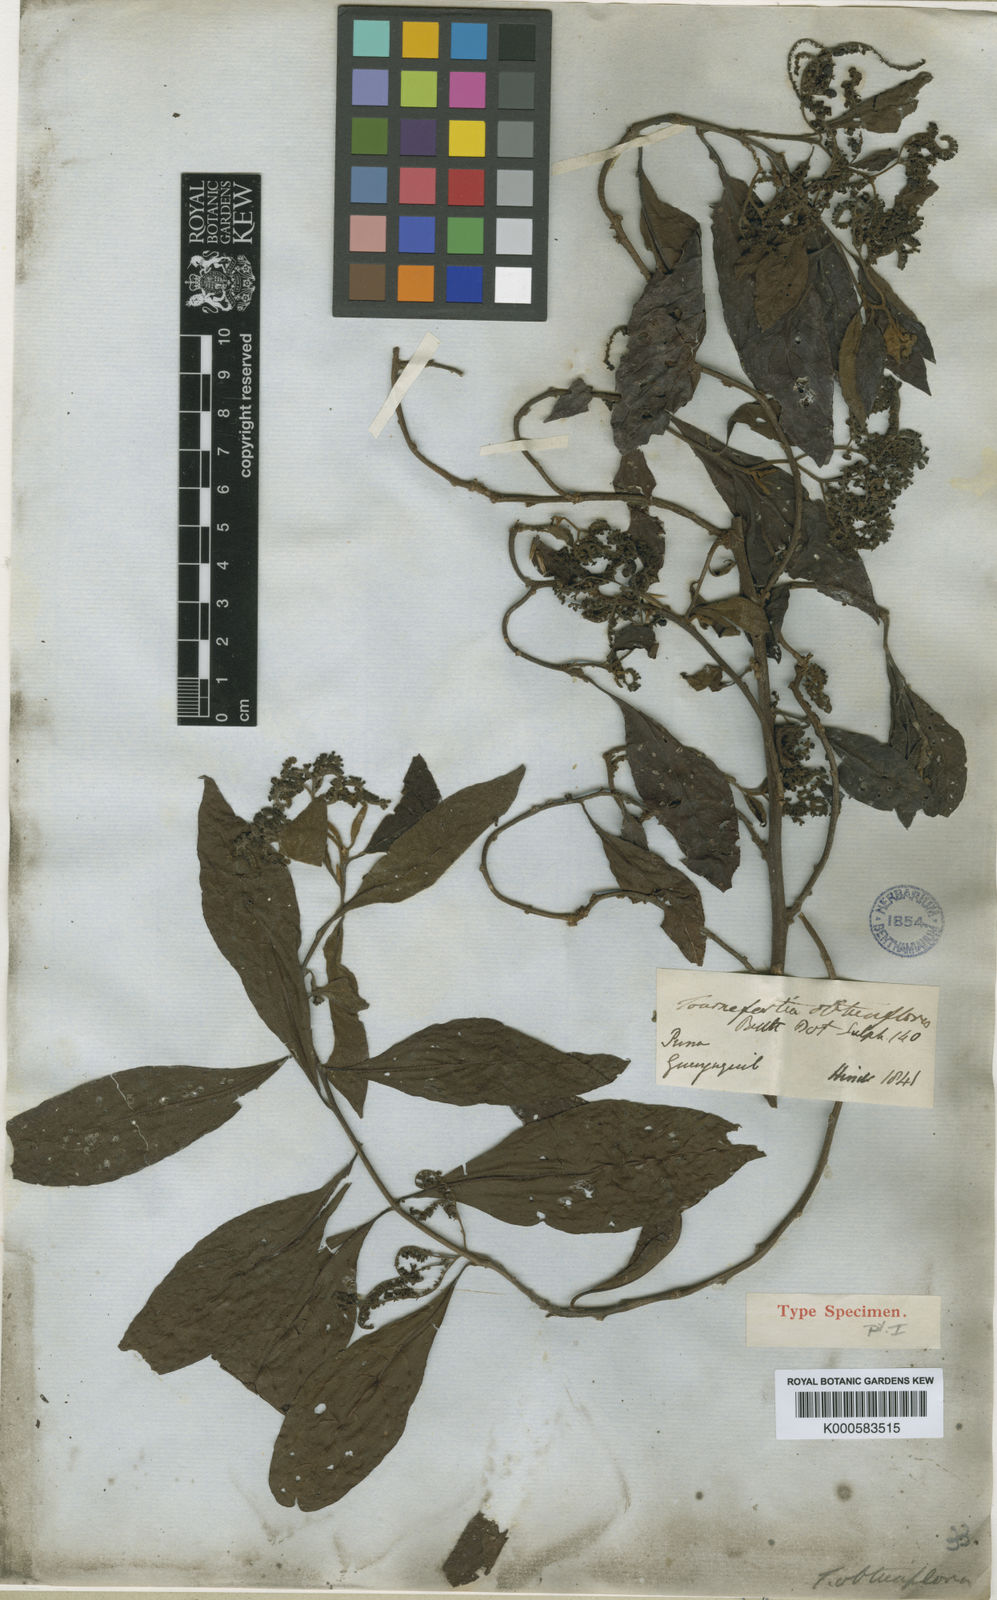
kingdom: Plantae
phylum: Tracheophyta
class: Magnoliopsida
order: Boraginales
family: Heliotropiaceae
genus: Tournefortia
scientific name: Tournefortia microcalyx
